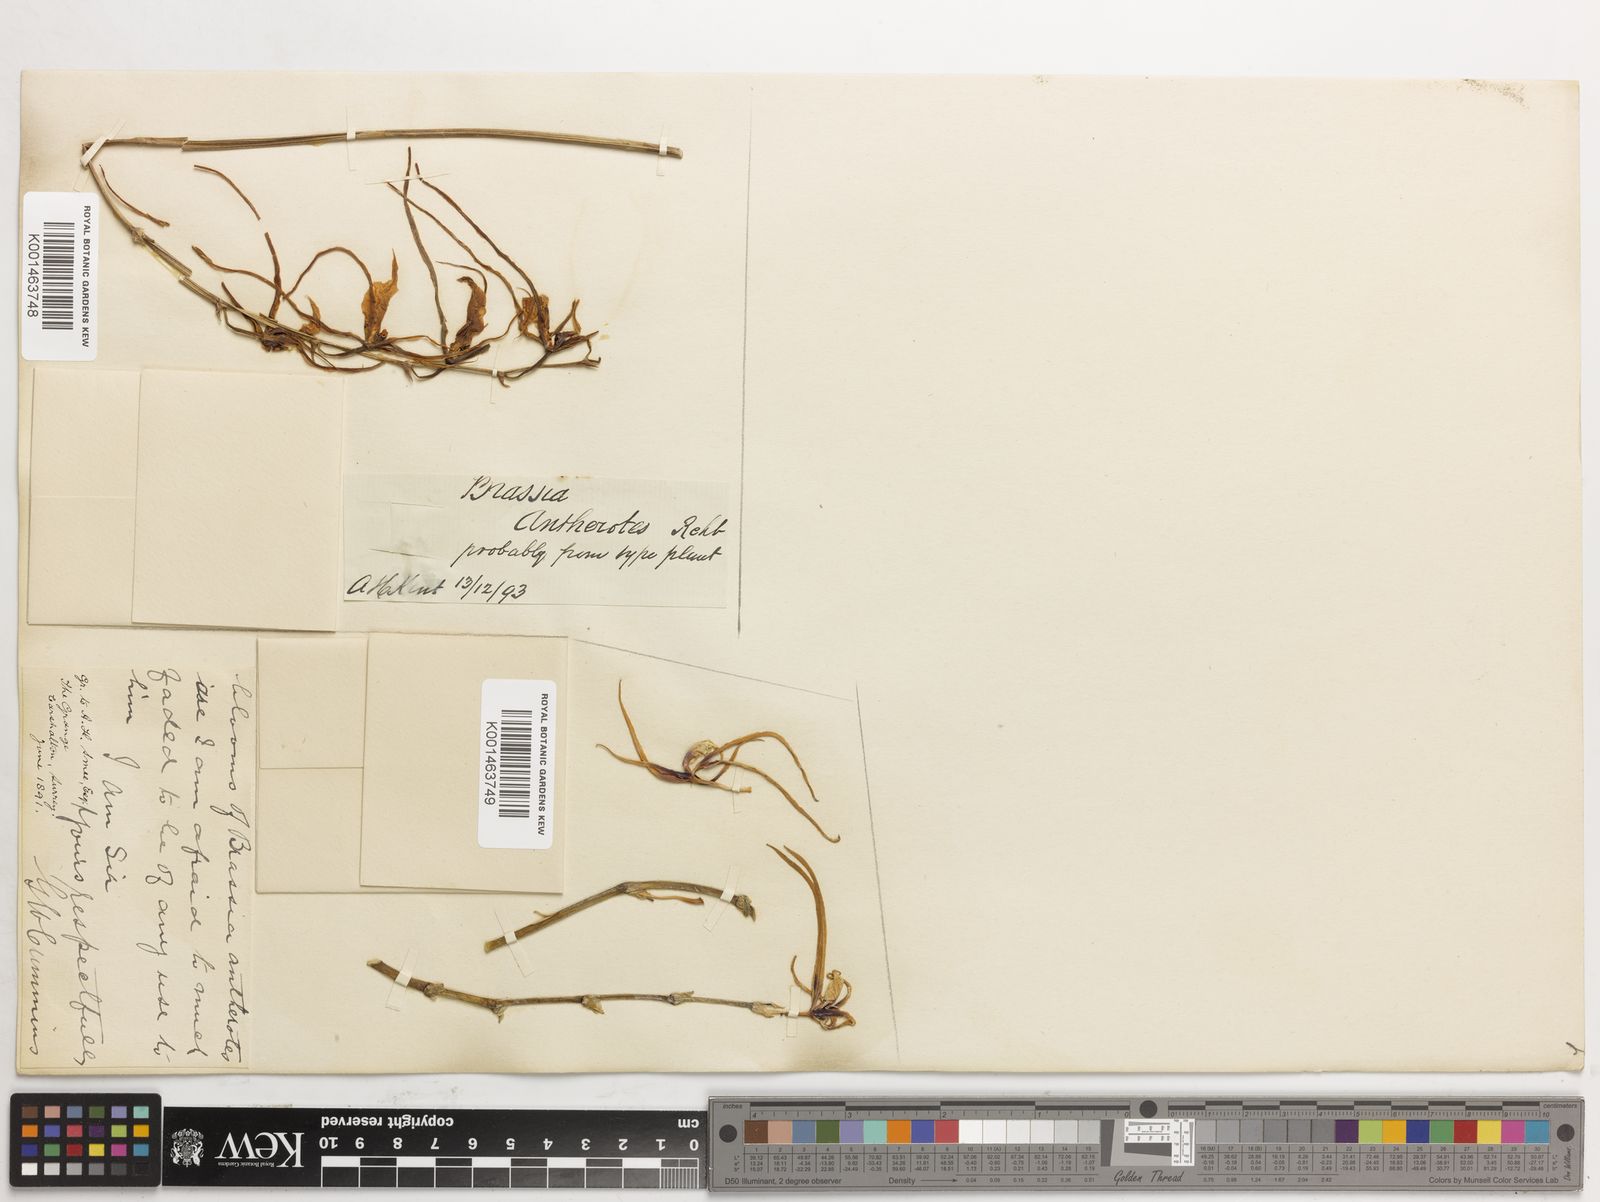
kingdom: Plantae
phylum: Tracheophyta
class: Liliopsida
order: Asparagales
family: Orchidaceae
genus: Brassia
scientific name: Brassia arcuigera
